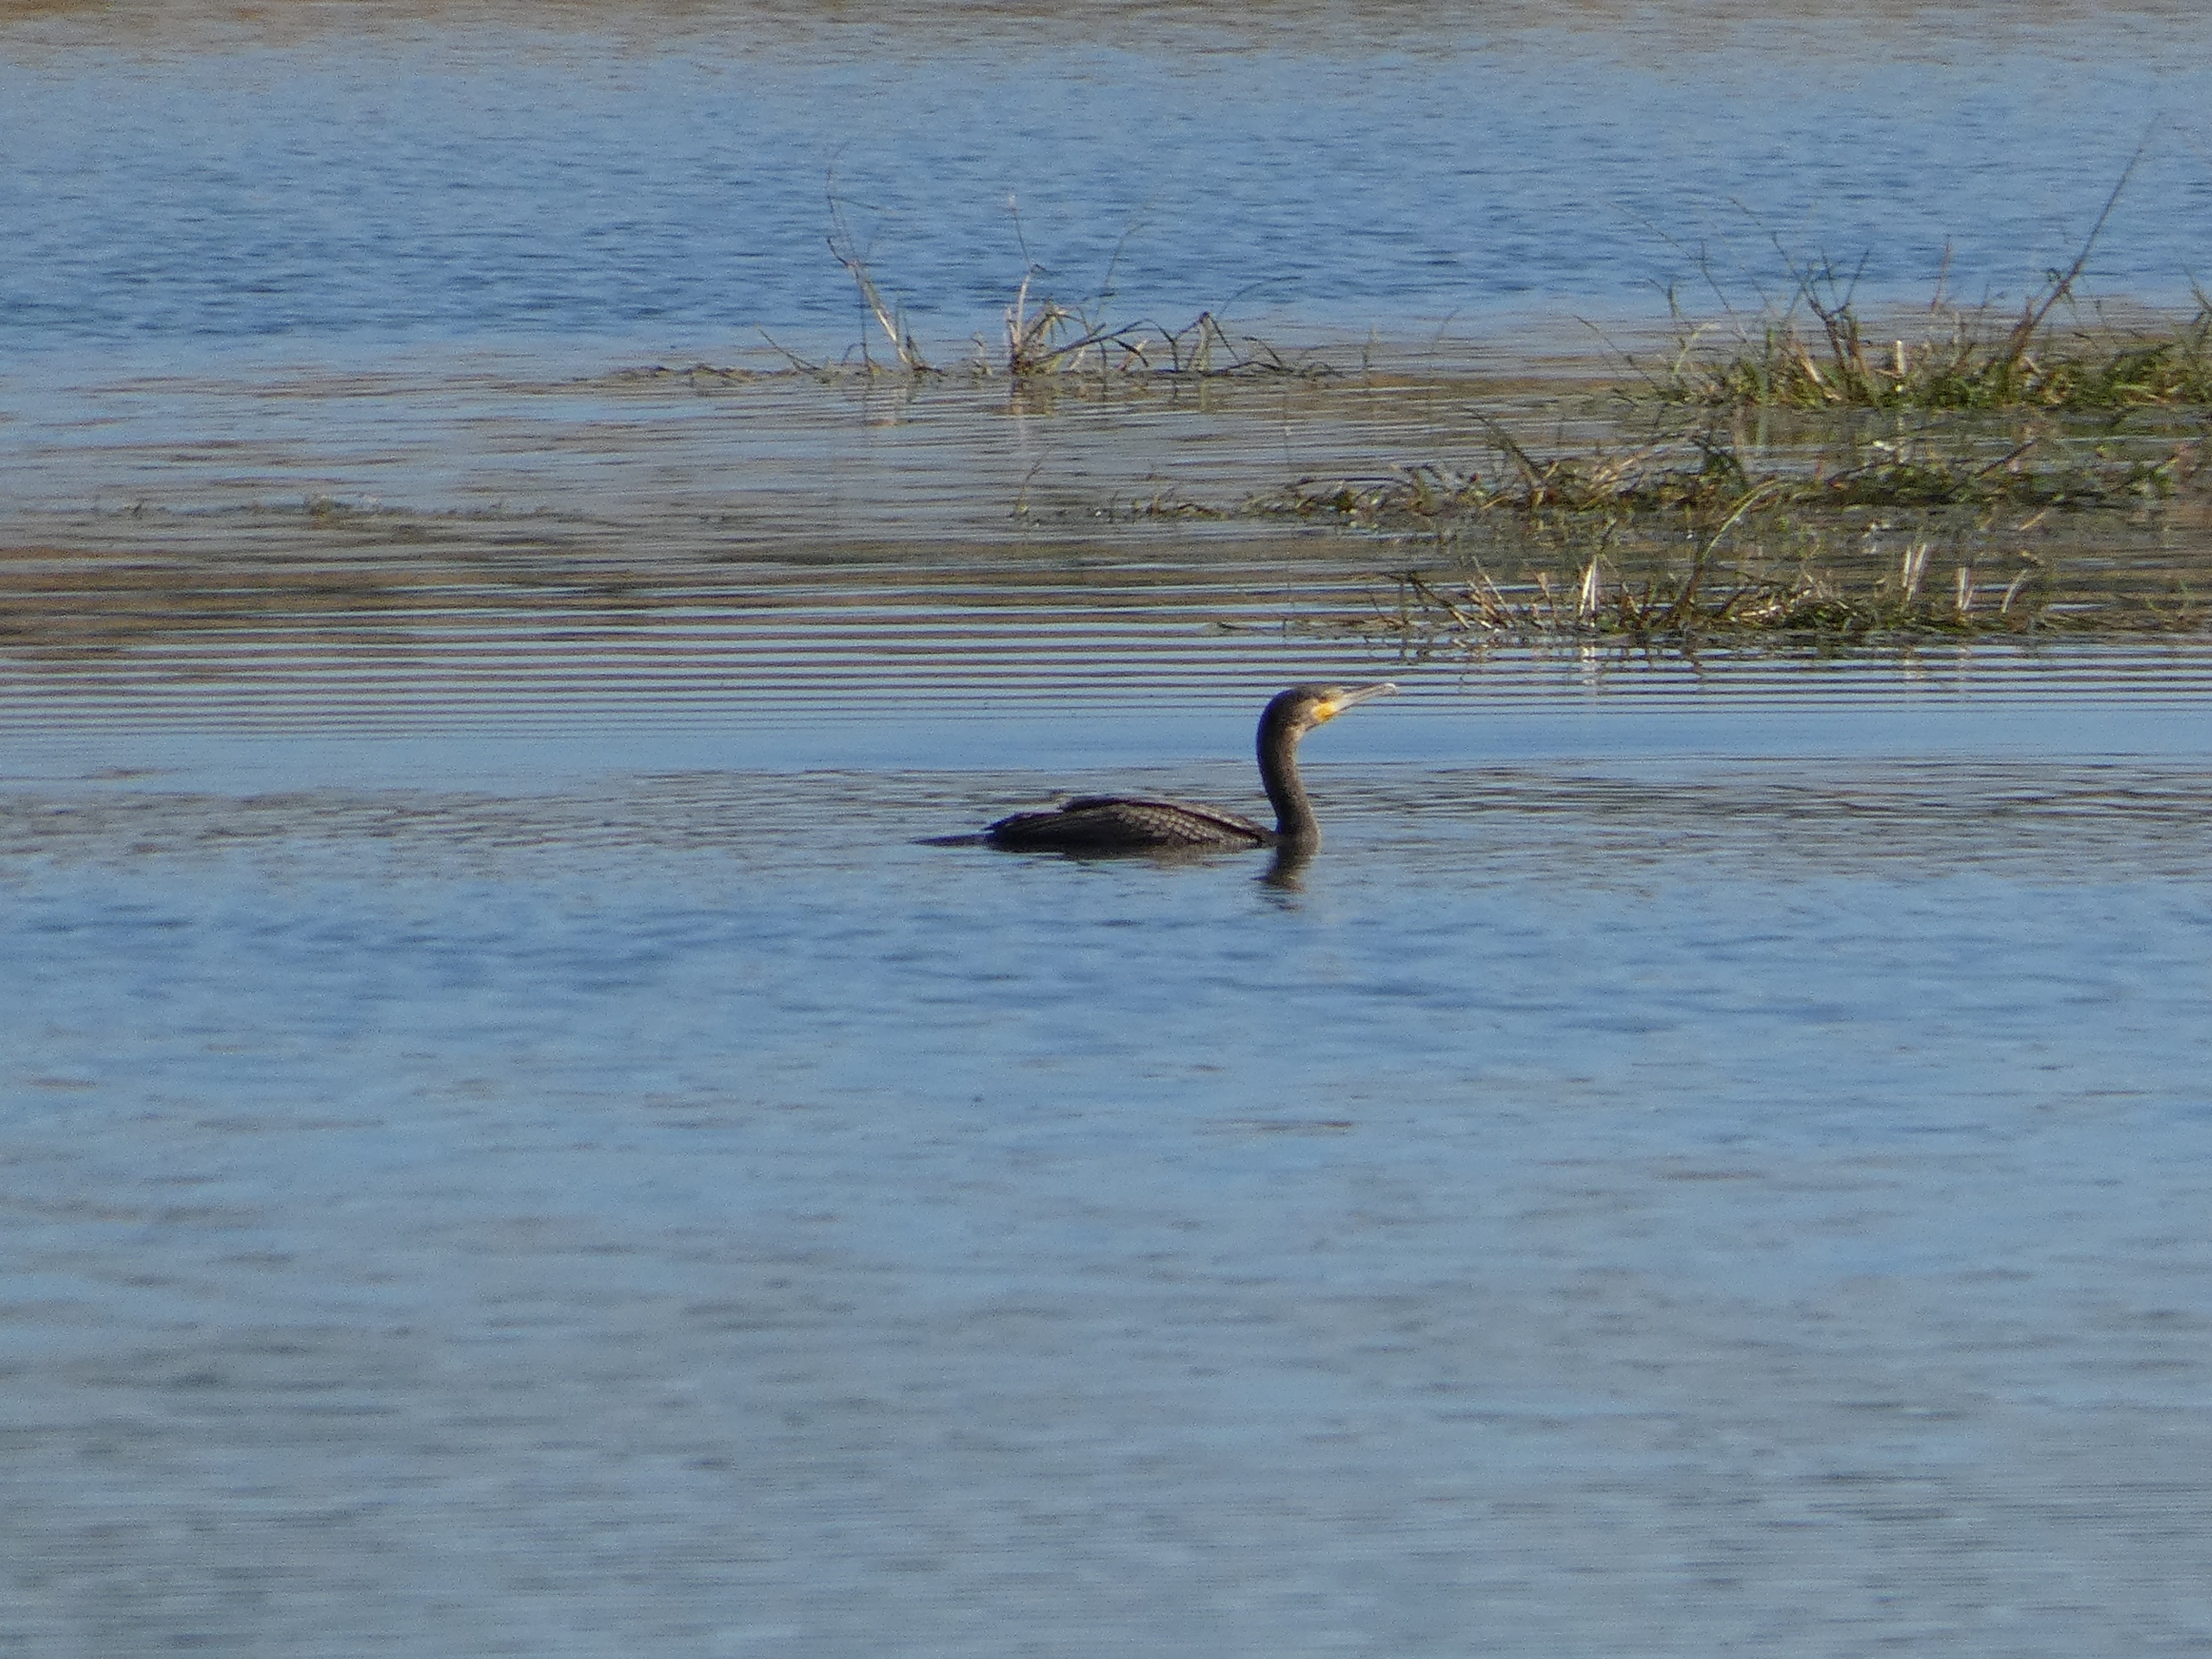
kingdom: Animalia
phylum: Chordata
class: Aves
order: Suliformes
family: Phalacrocoracidae
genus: Phalacrocorax
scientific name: Phalacrocorax carbo
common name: Skarv
